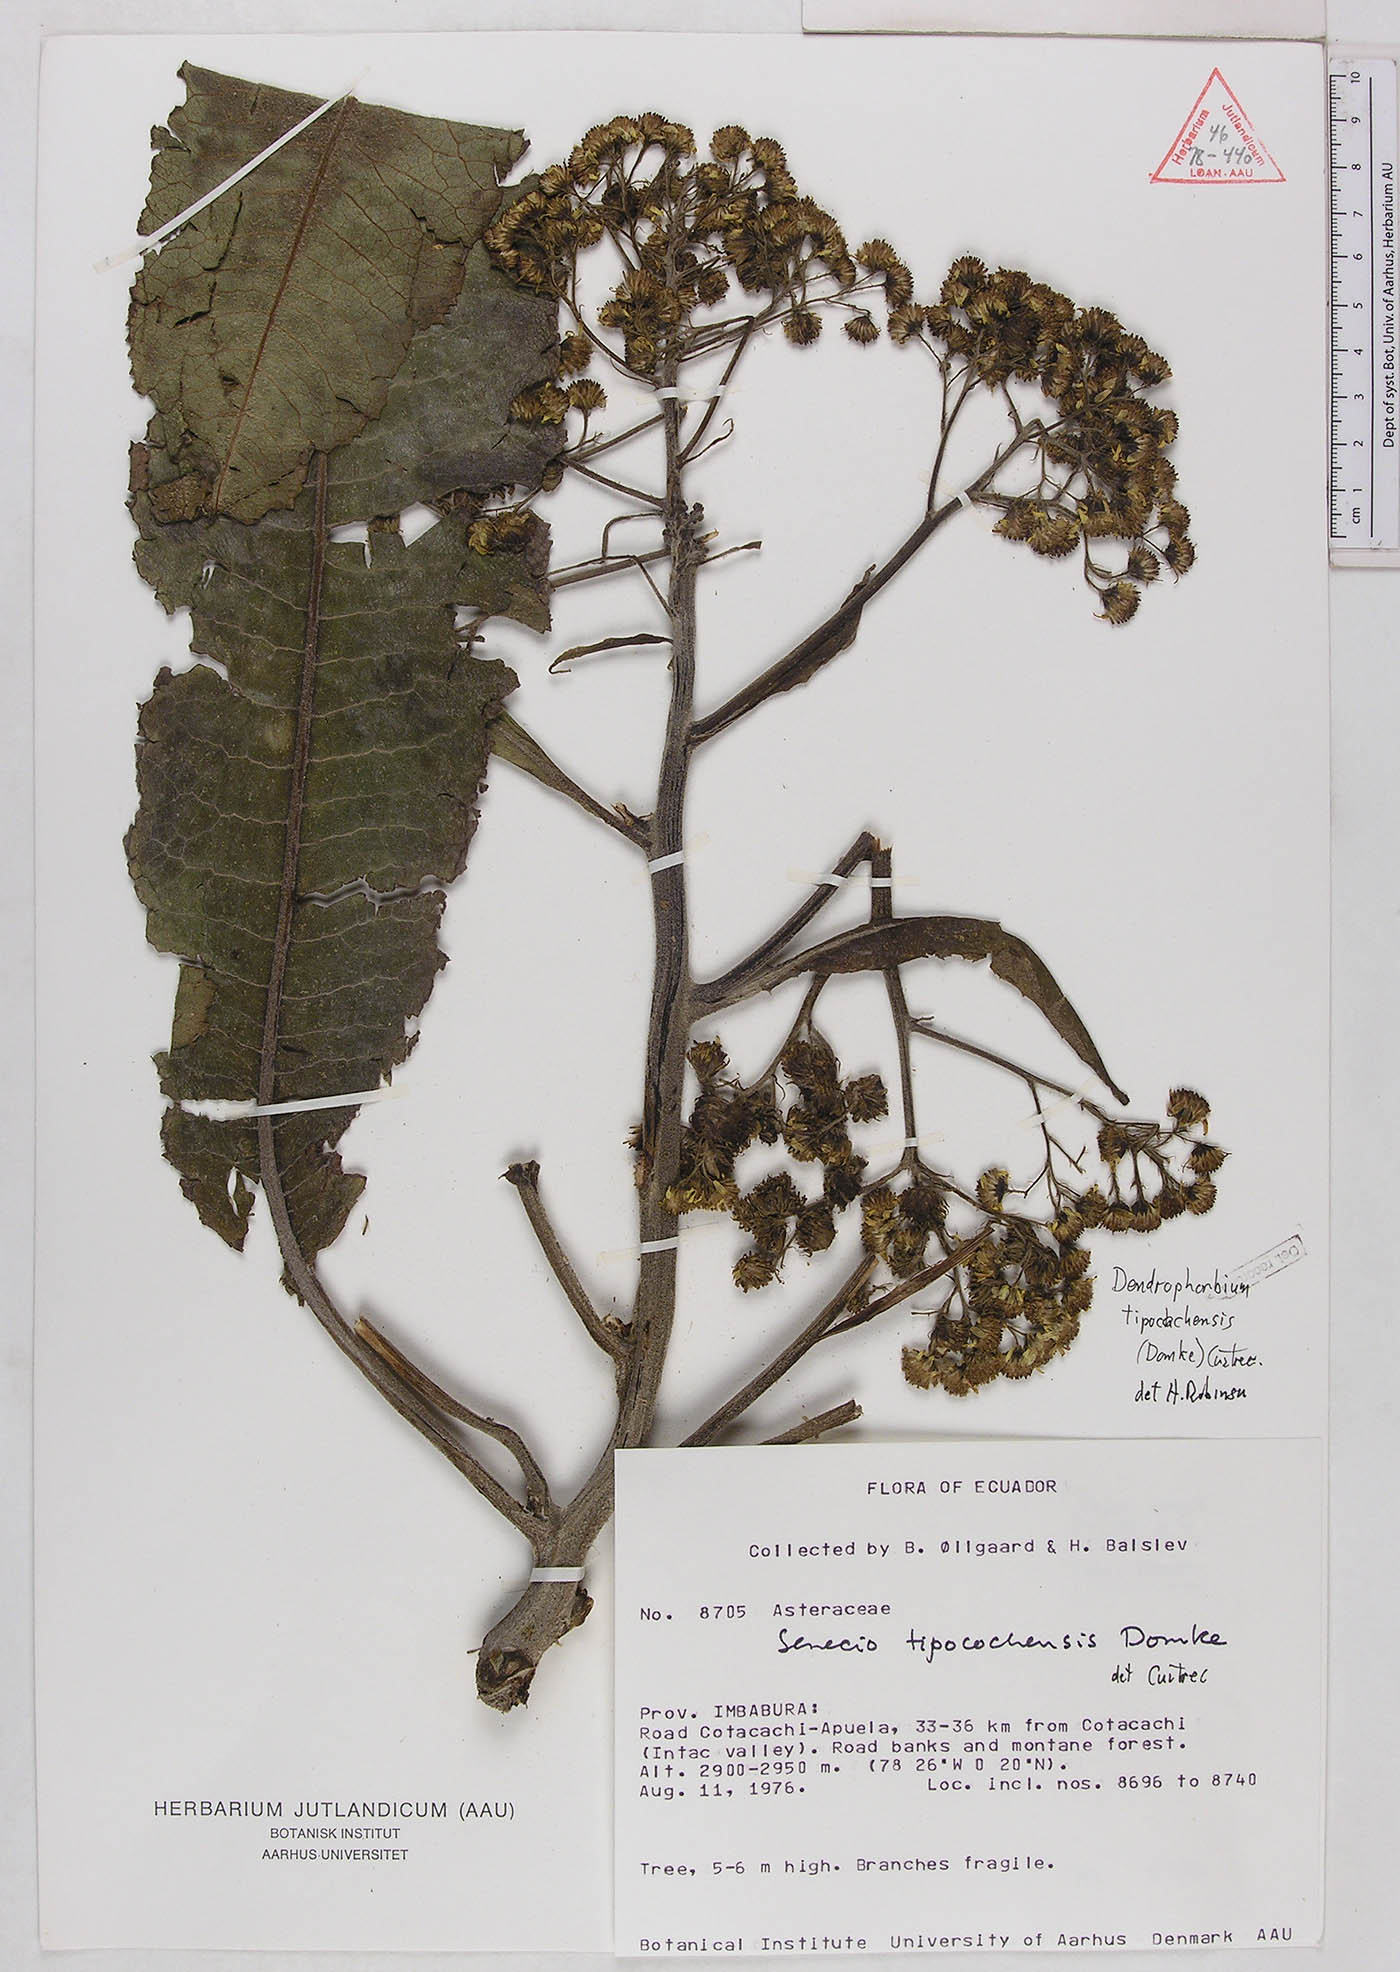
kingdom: Plantae
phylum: Tracheophyta
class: Magnoliopsida
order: Asterales
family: Asteraceae
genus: Dendrophorbium
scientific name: Dendrophorbium tipocochense
